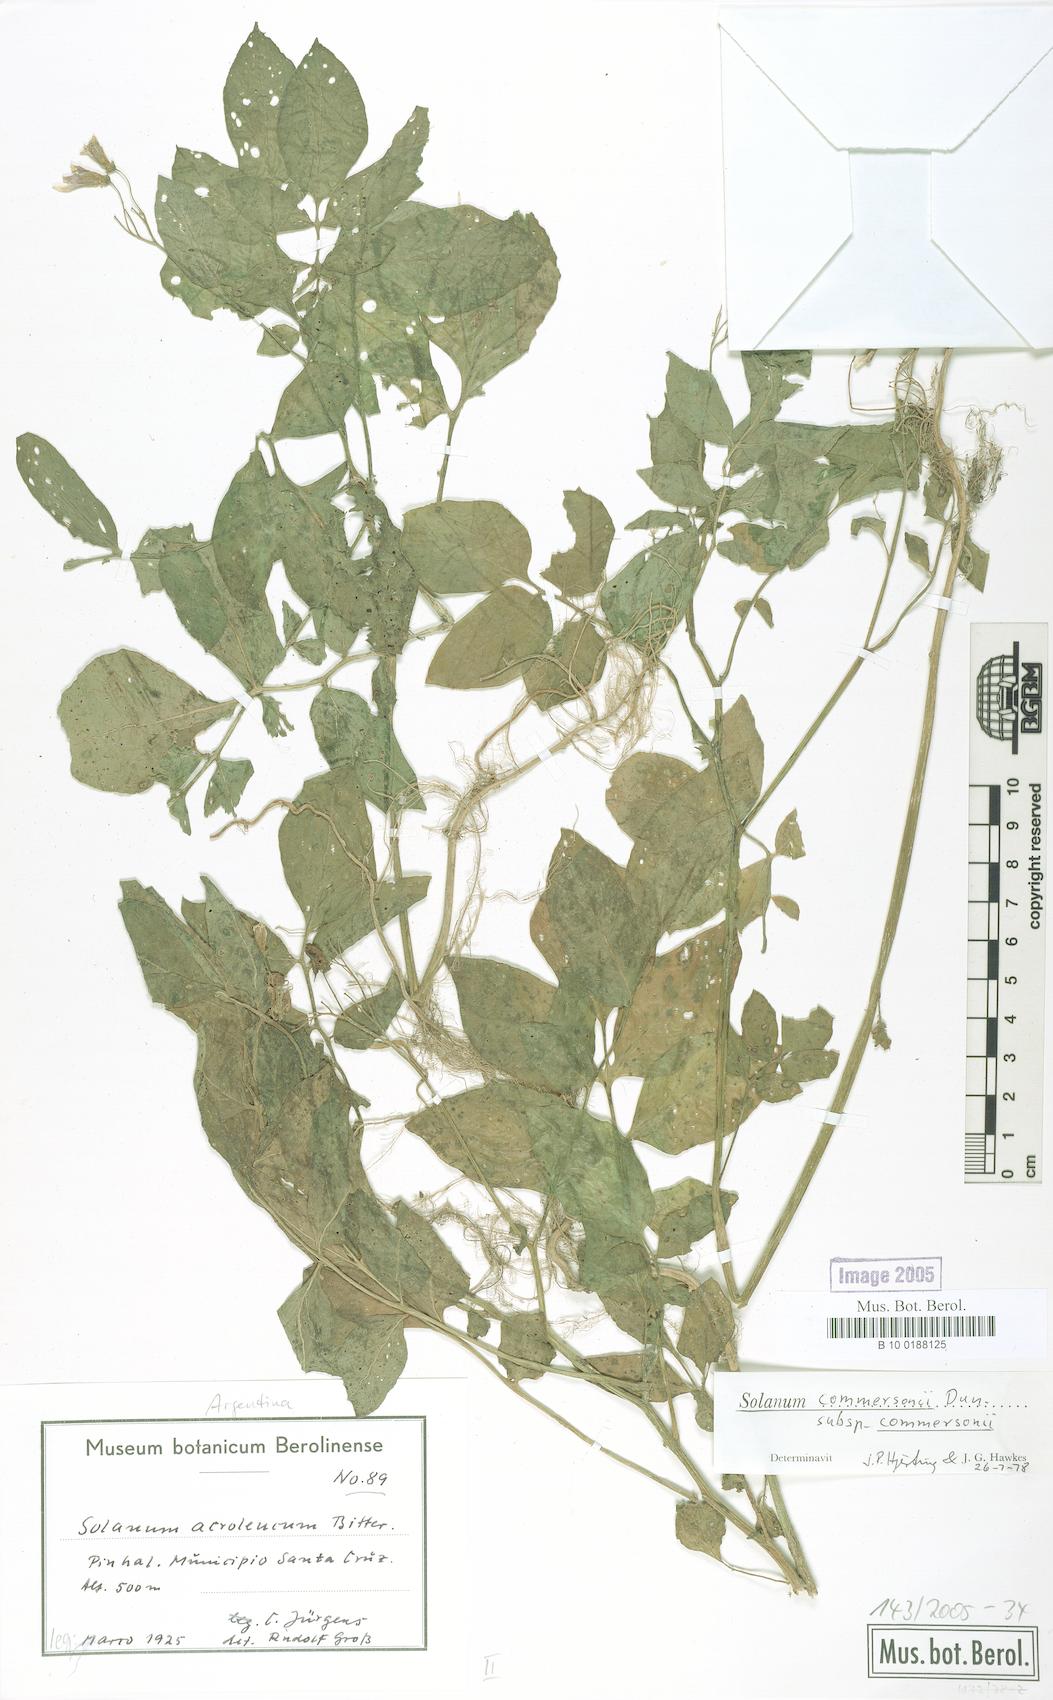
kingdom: Plantae
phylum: Tracheophyta
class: Magnoliopsida
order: Solanales
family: Solanaceae
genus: Solanum
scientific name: Solanum commersonii
